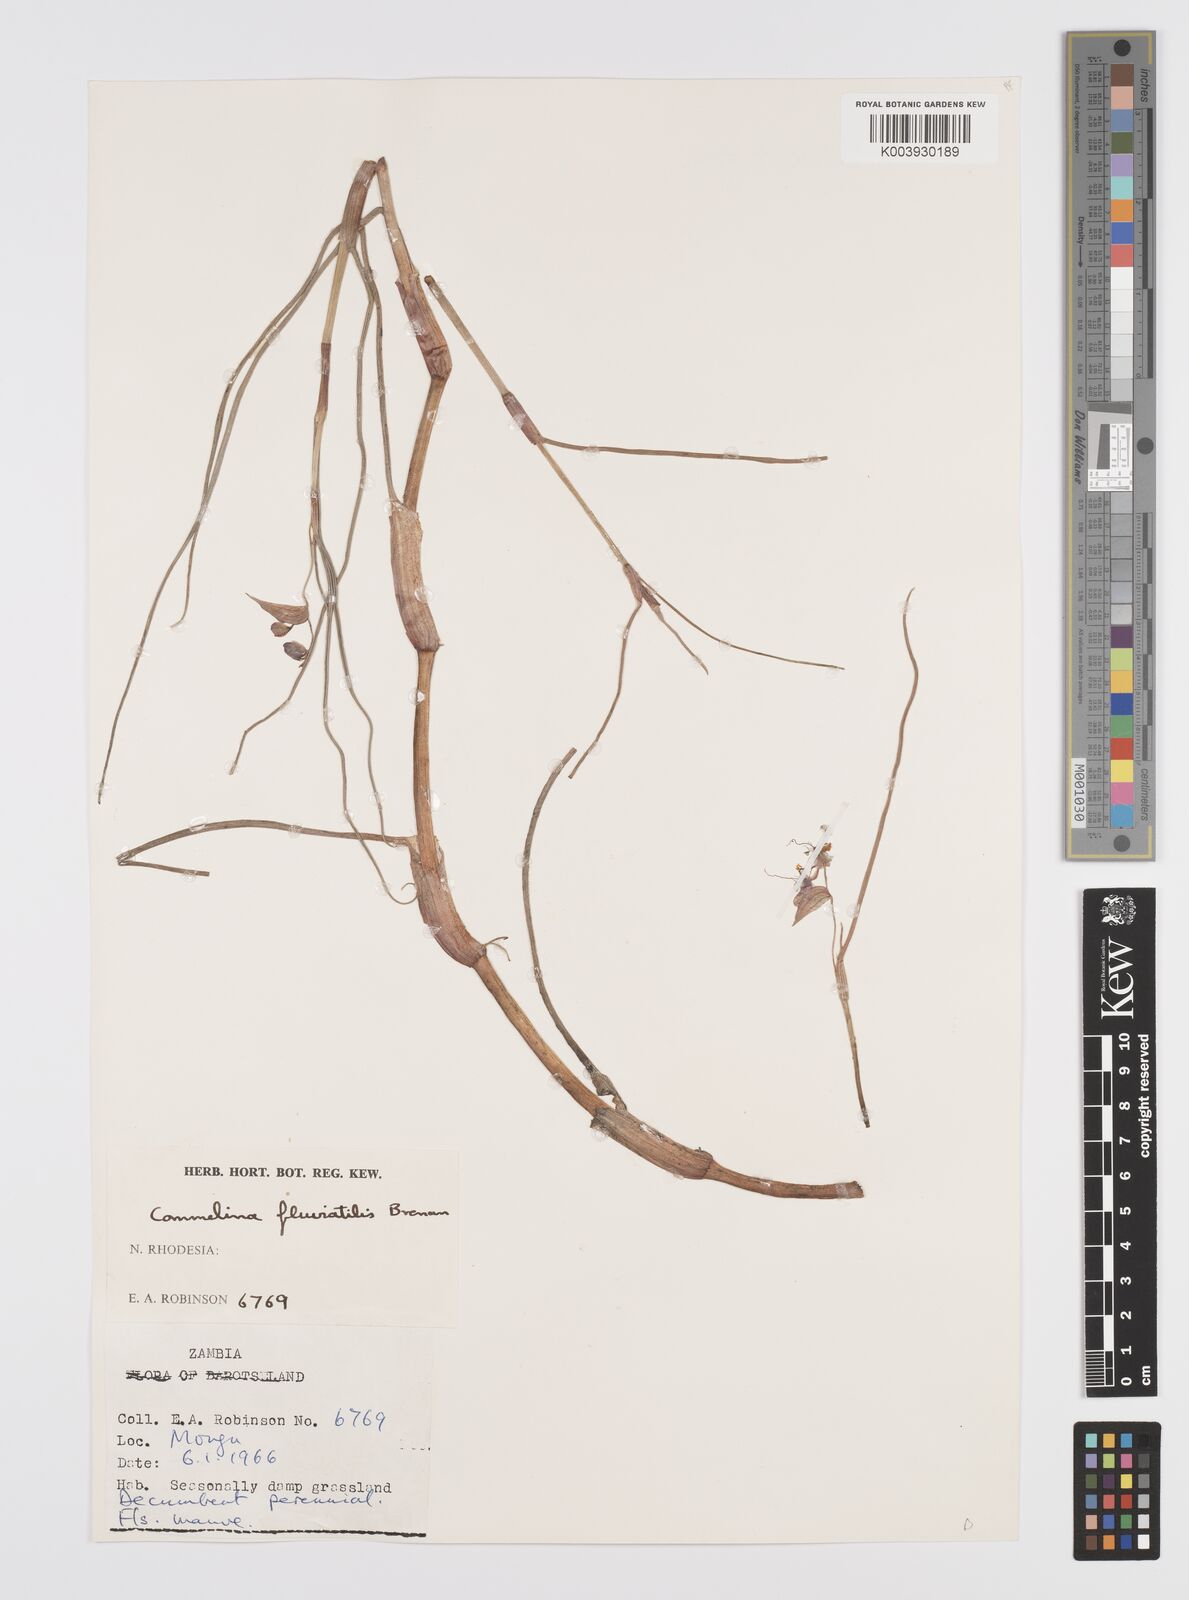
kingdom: Plantae
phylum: Tracheophyta
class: Liliopsida
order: Commelinales
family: Commelinaceae
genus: Commelina
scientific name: Commelina fluviatilis
